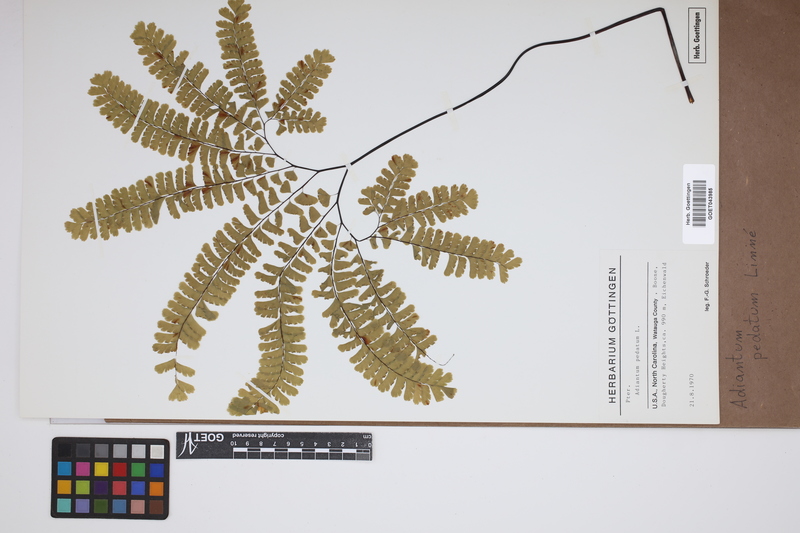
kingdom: Plantae
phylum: Tracheophyta
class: Polypodiopsida
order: Polypodiales
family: Pteridaceae
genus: Adiantum
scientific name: Adiantum pedatum
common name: Five-finger fern
